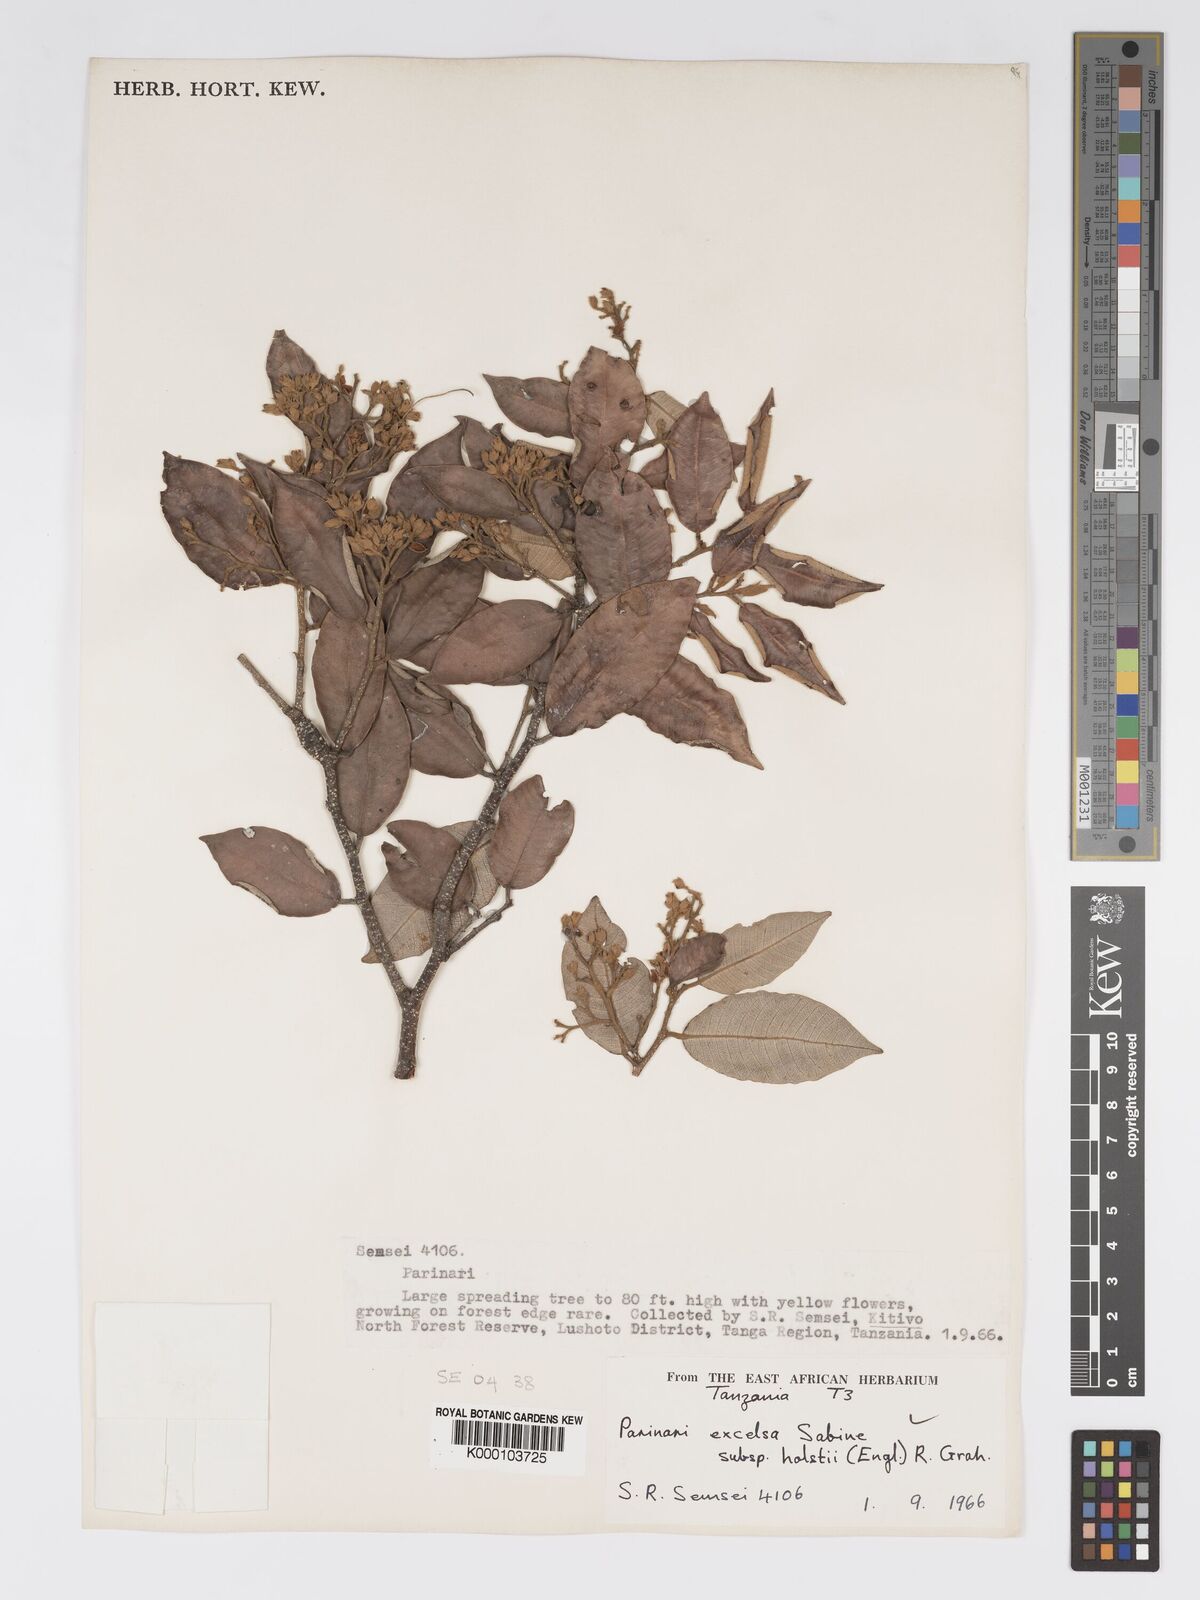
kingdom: Plantae
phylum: Tracheophyta
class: Magnoliopsida
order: Malpighiales
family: Chrysobalanaceae
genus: Parinari
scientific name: Parinari excelsa
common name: Guinea-plum
